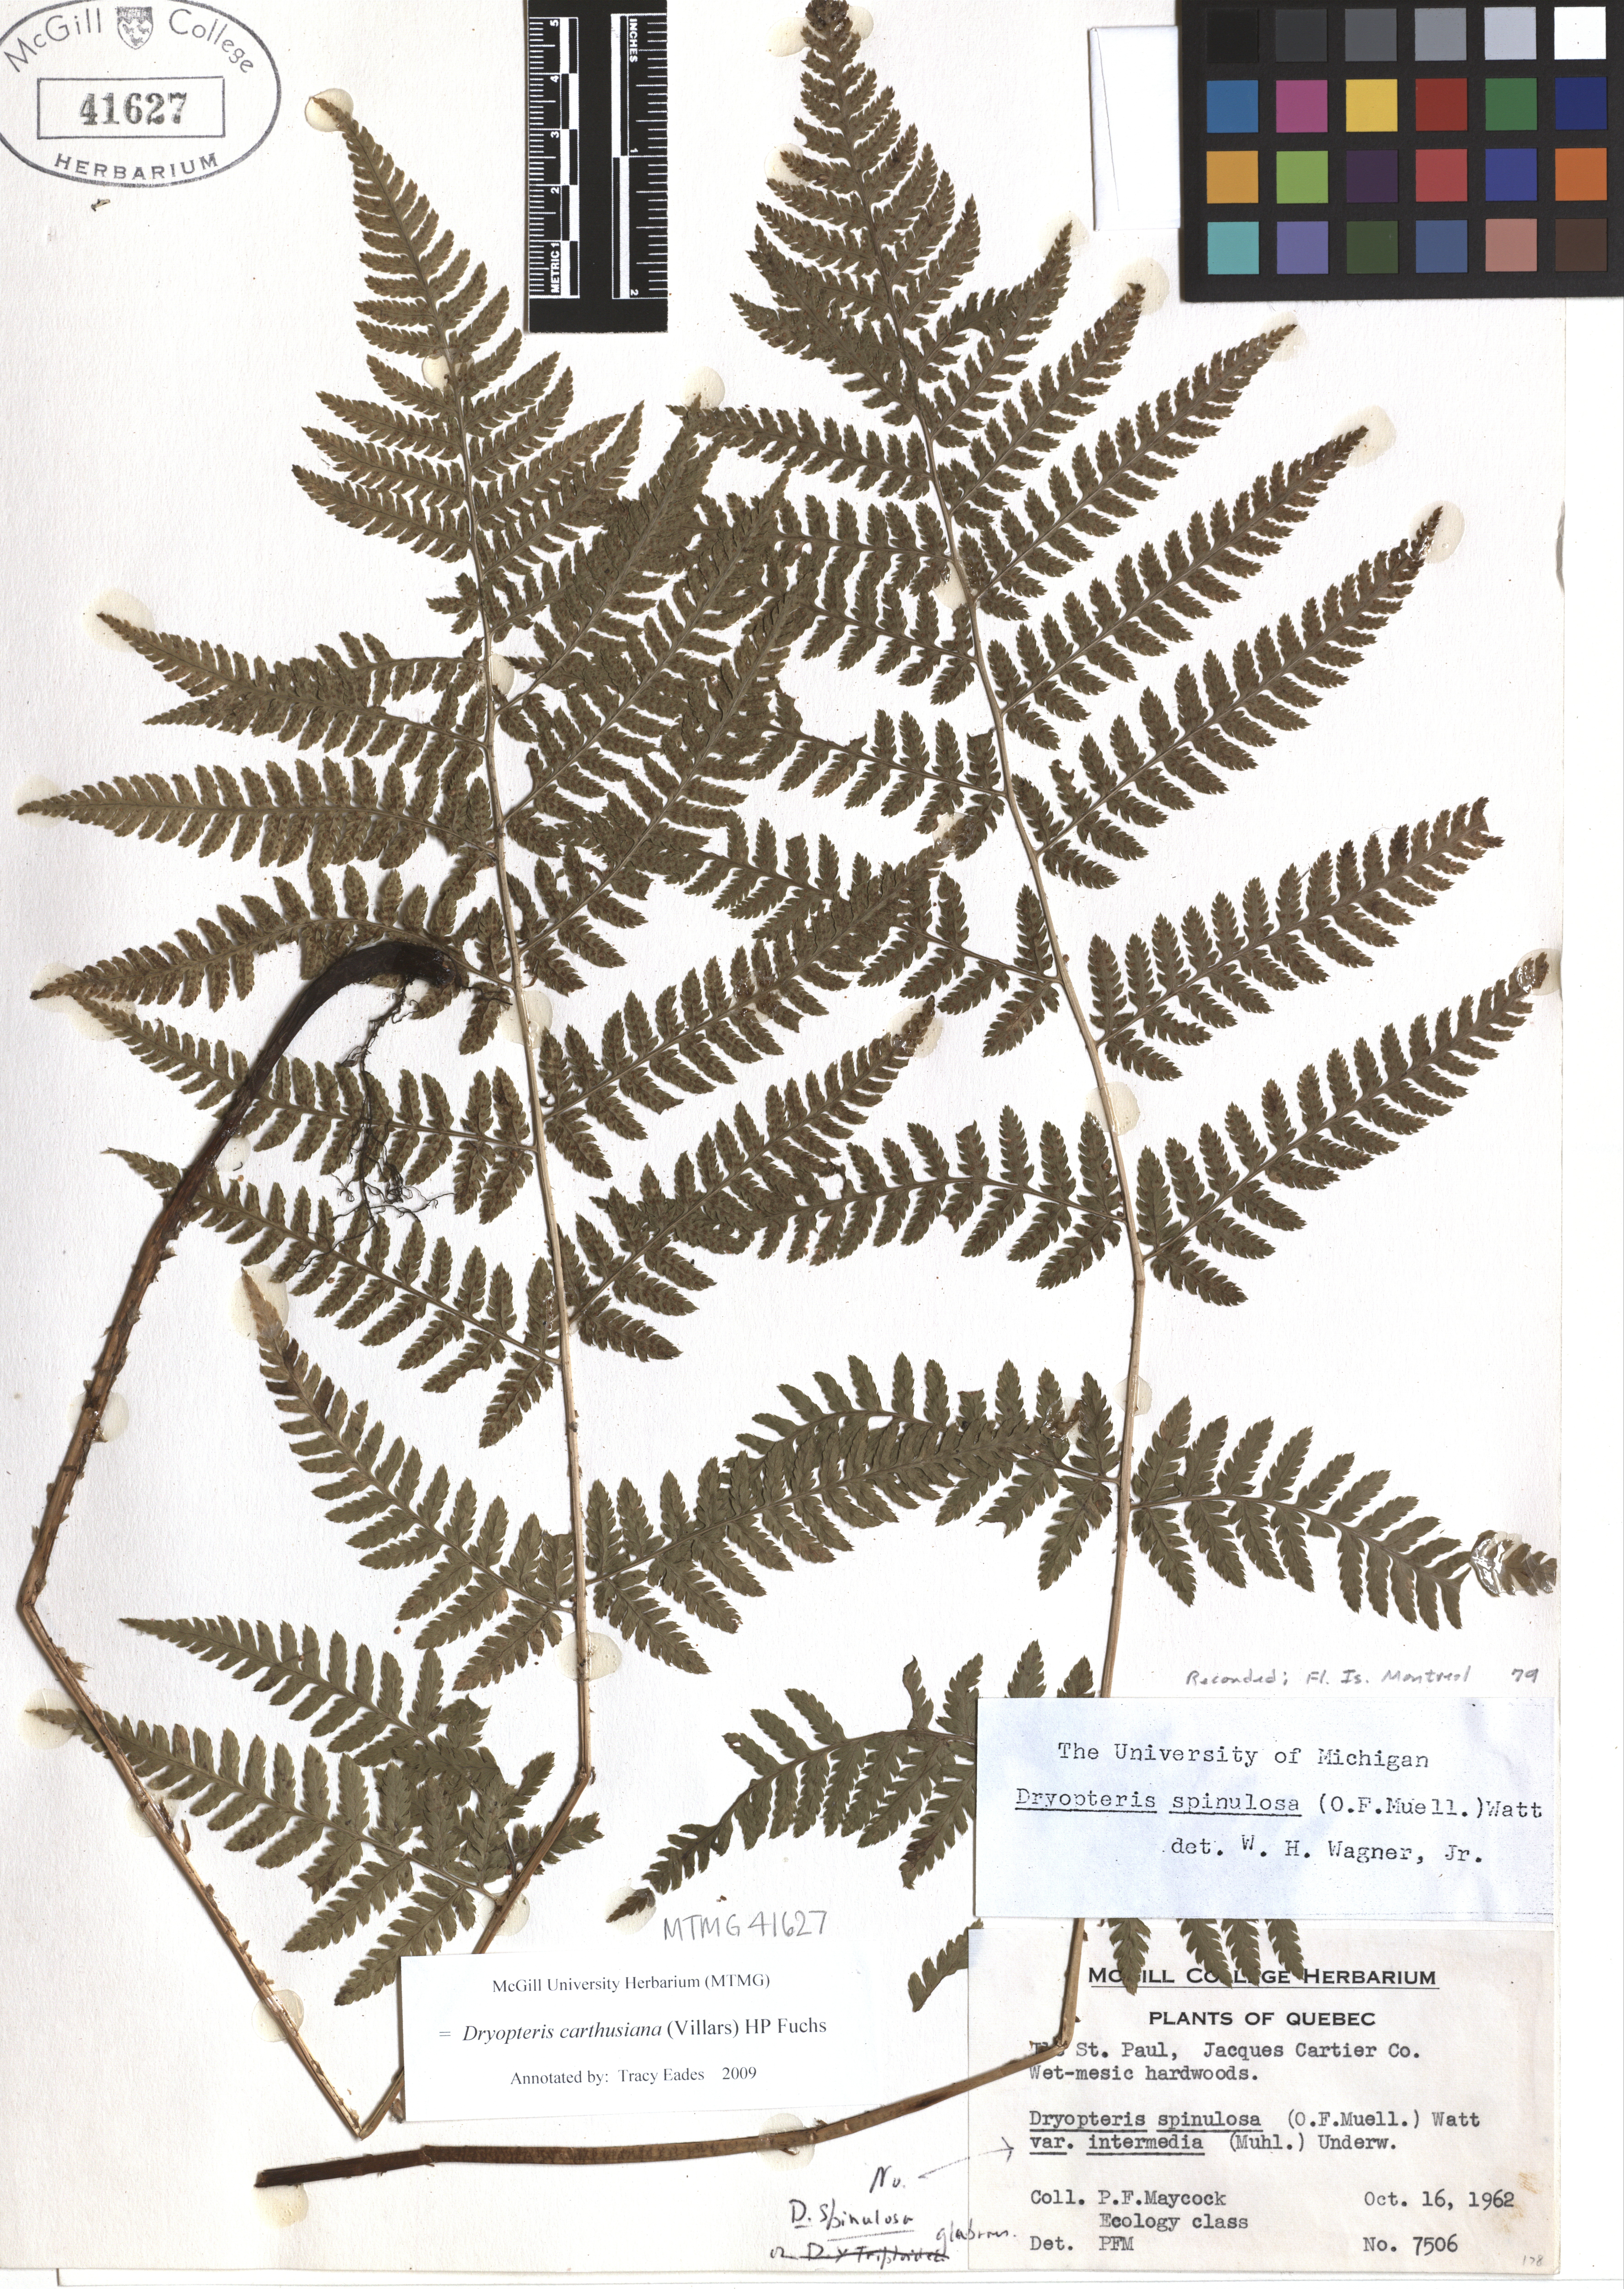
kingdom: Plantae
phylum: Tracheophyta
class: Polypodiopsida
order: Polypodiales
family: Dryopteridaceae
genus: Dryopteris
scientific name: Dryopteris carthusiana
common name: Narrow buckler-fern
